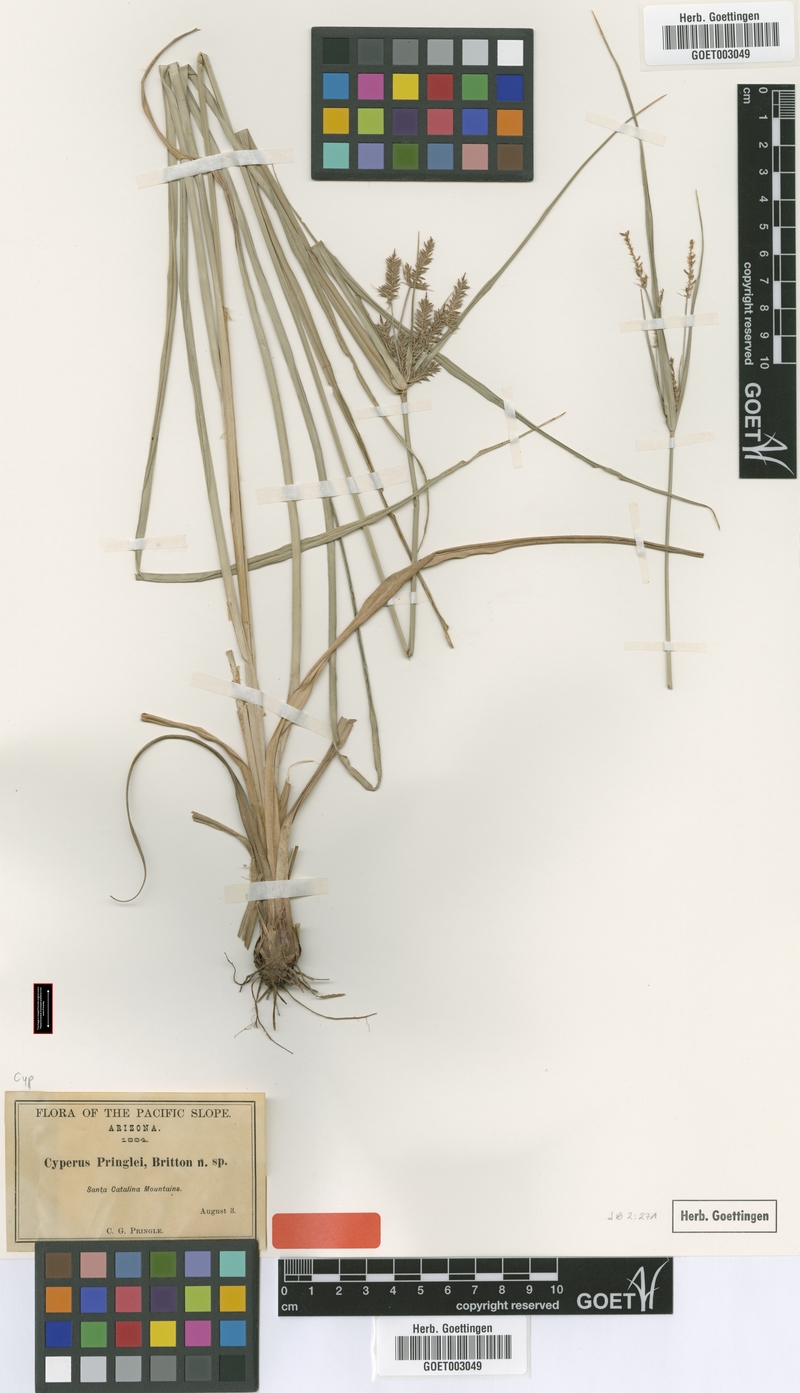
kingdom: Plantae
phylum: Tracheophyta
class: Liliopsida
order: Poales
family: Cyperaceae
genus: Cyperus
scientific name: Cyperus tetragonus
